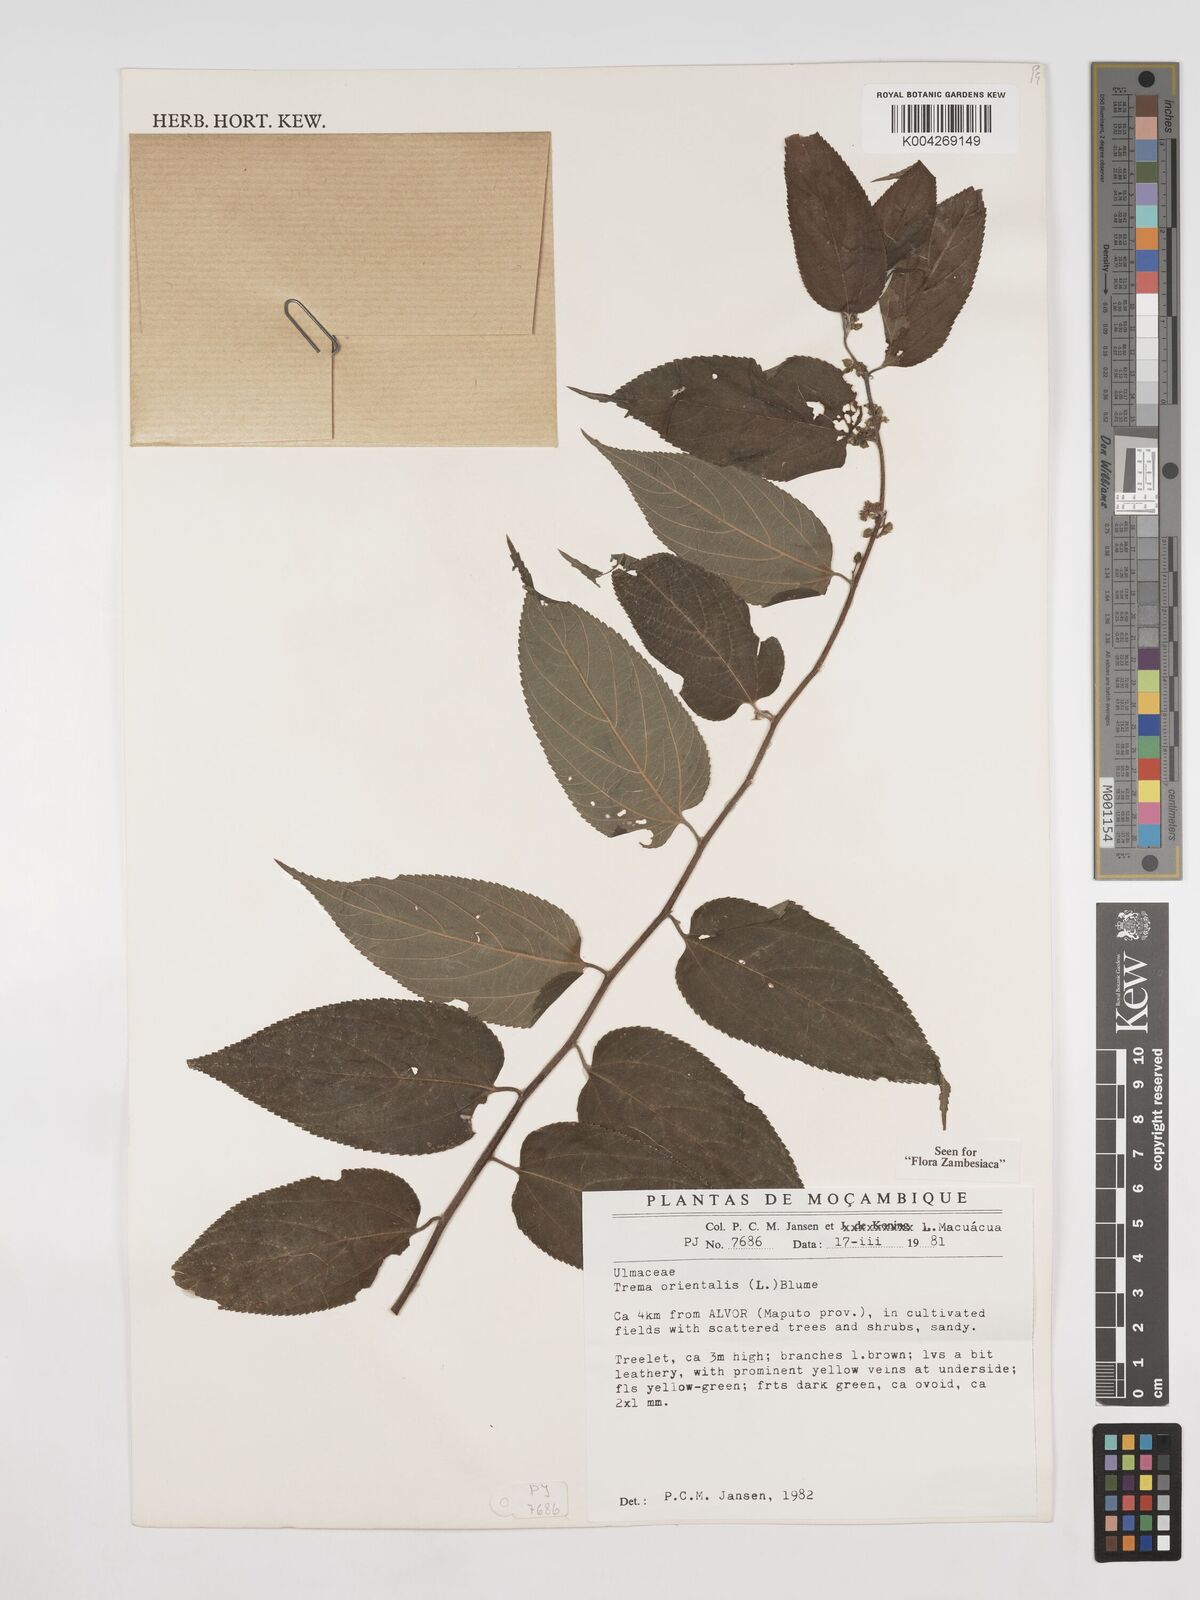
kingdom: Plantae
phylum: Tracheophyta
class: Magnoliopsida
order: Rosales
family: Cannabaceae
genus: Trema
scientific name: Trema orientale
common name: Indian charcoal tree
